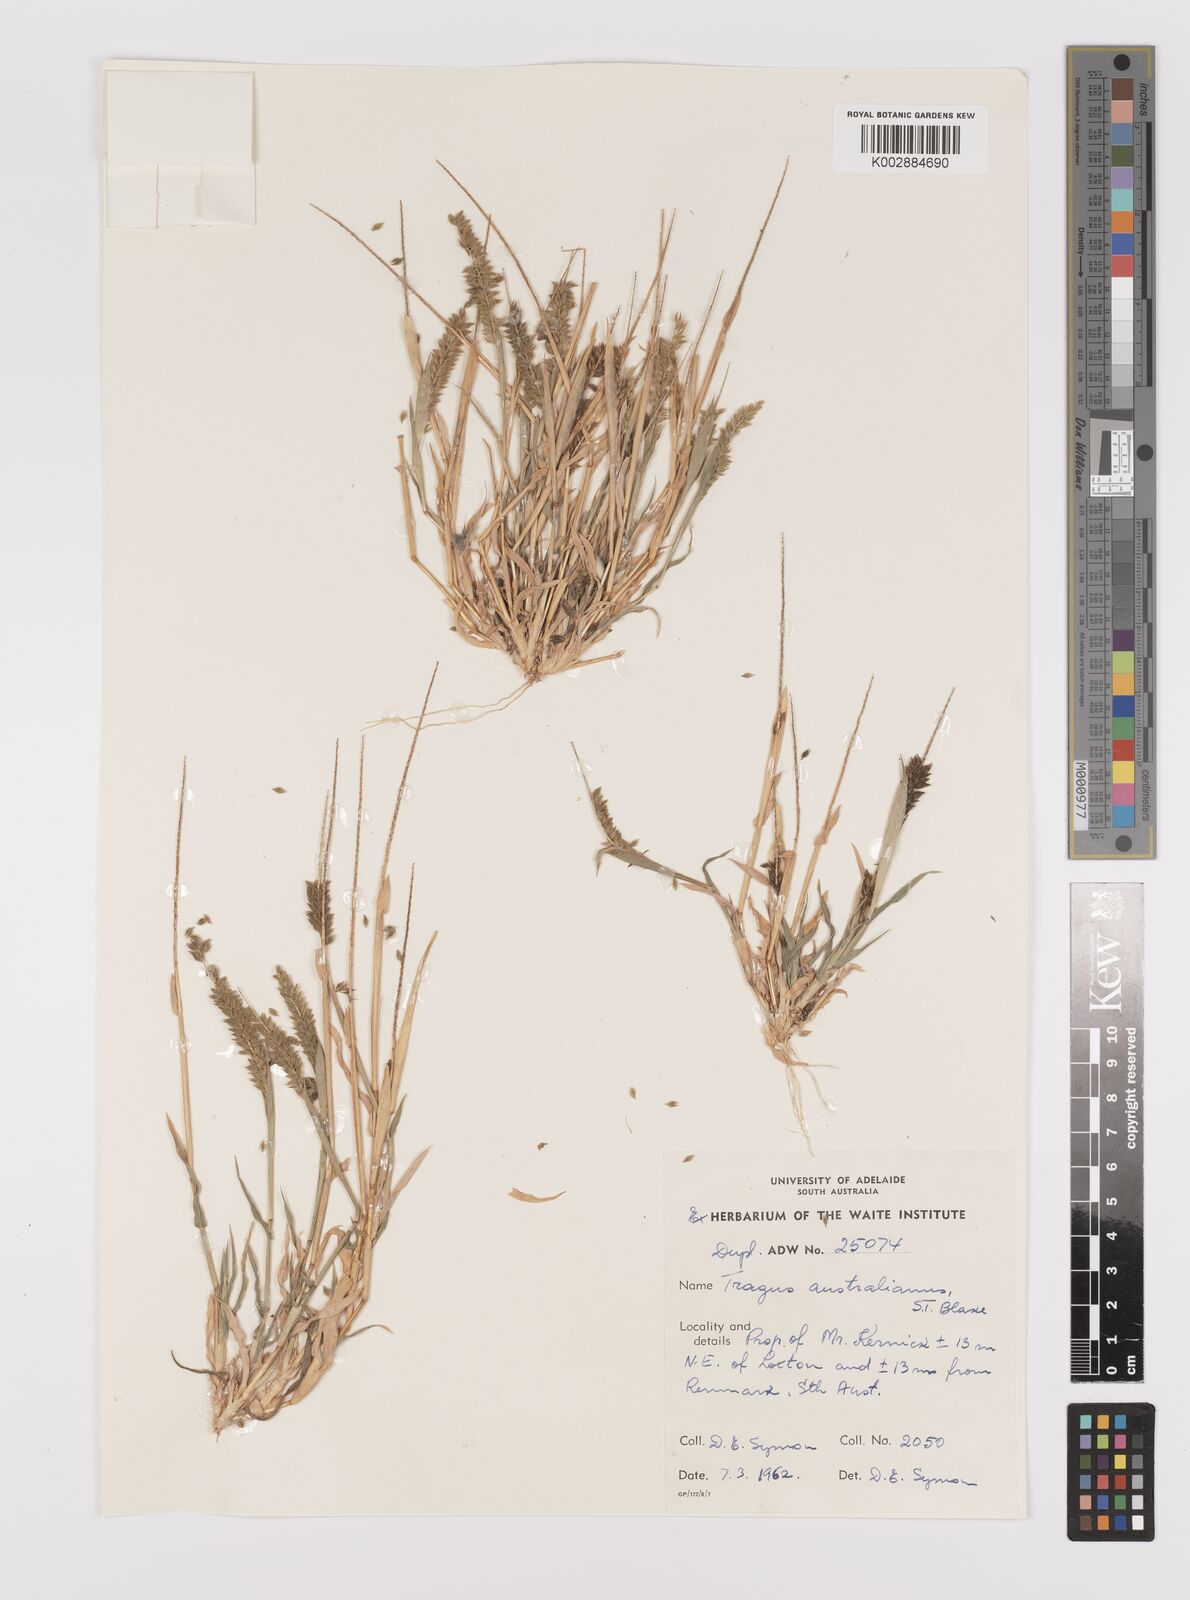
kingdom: Plantae
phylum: Tracheophyta
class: Liliopsida
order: Poales
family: Poaceae
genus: Tragus
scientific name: Tragus australianus
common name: Australian bur-grass
